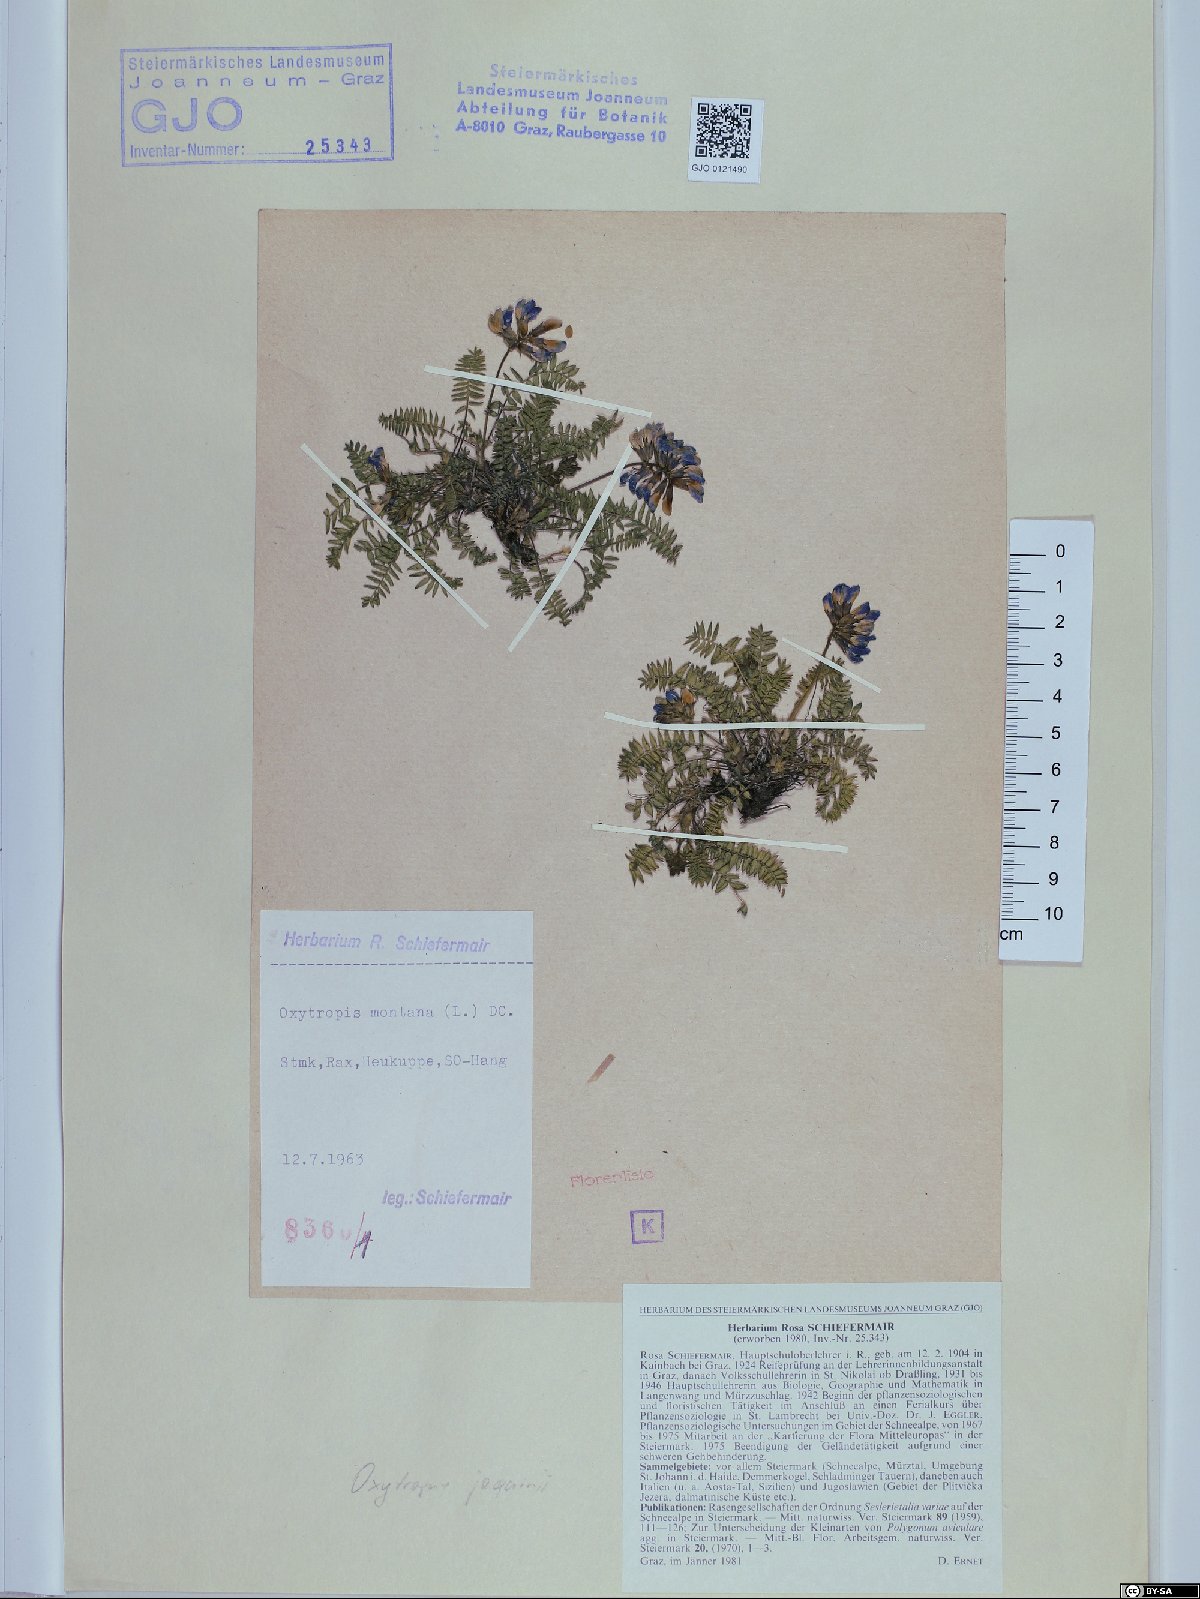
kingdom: Plantae
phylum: Tracheophyta
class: Magnoliopsida
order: Fabales
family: Fabaceae
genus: Oxytropis
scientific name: Oxytropis montana
